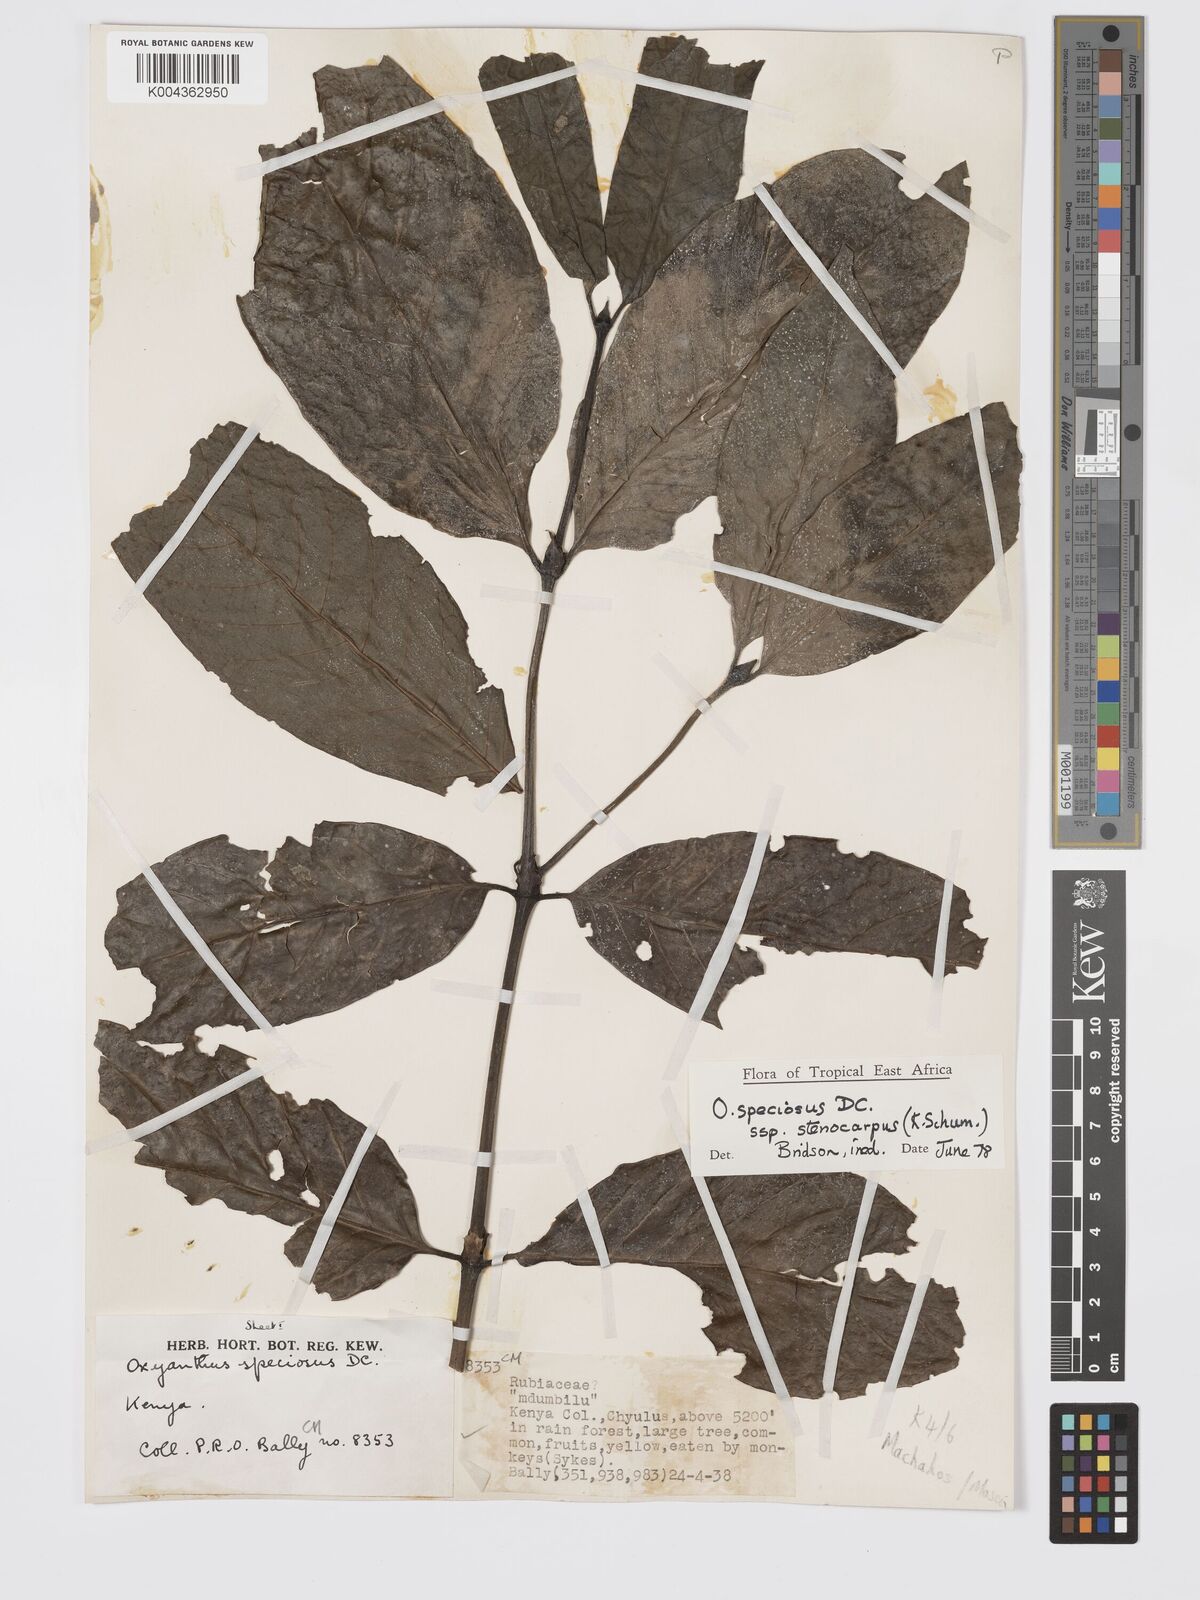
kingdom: Plantae
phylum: Tracheophyta
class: Magnoliopsida
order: Gentianales
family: Rubiaceae
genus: Oxyanthus
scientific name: Oxyanthus speciosus
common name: Whipstick loquat
